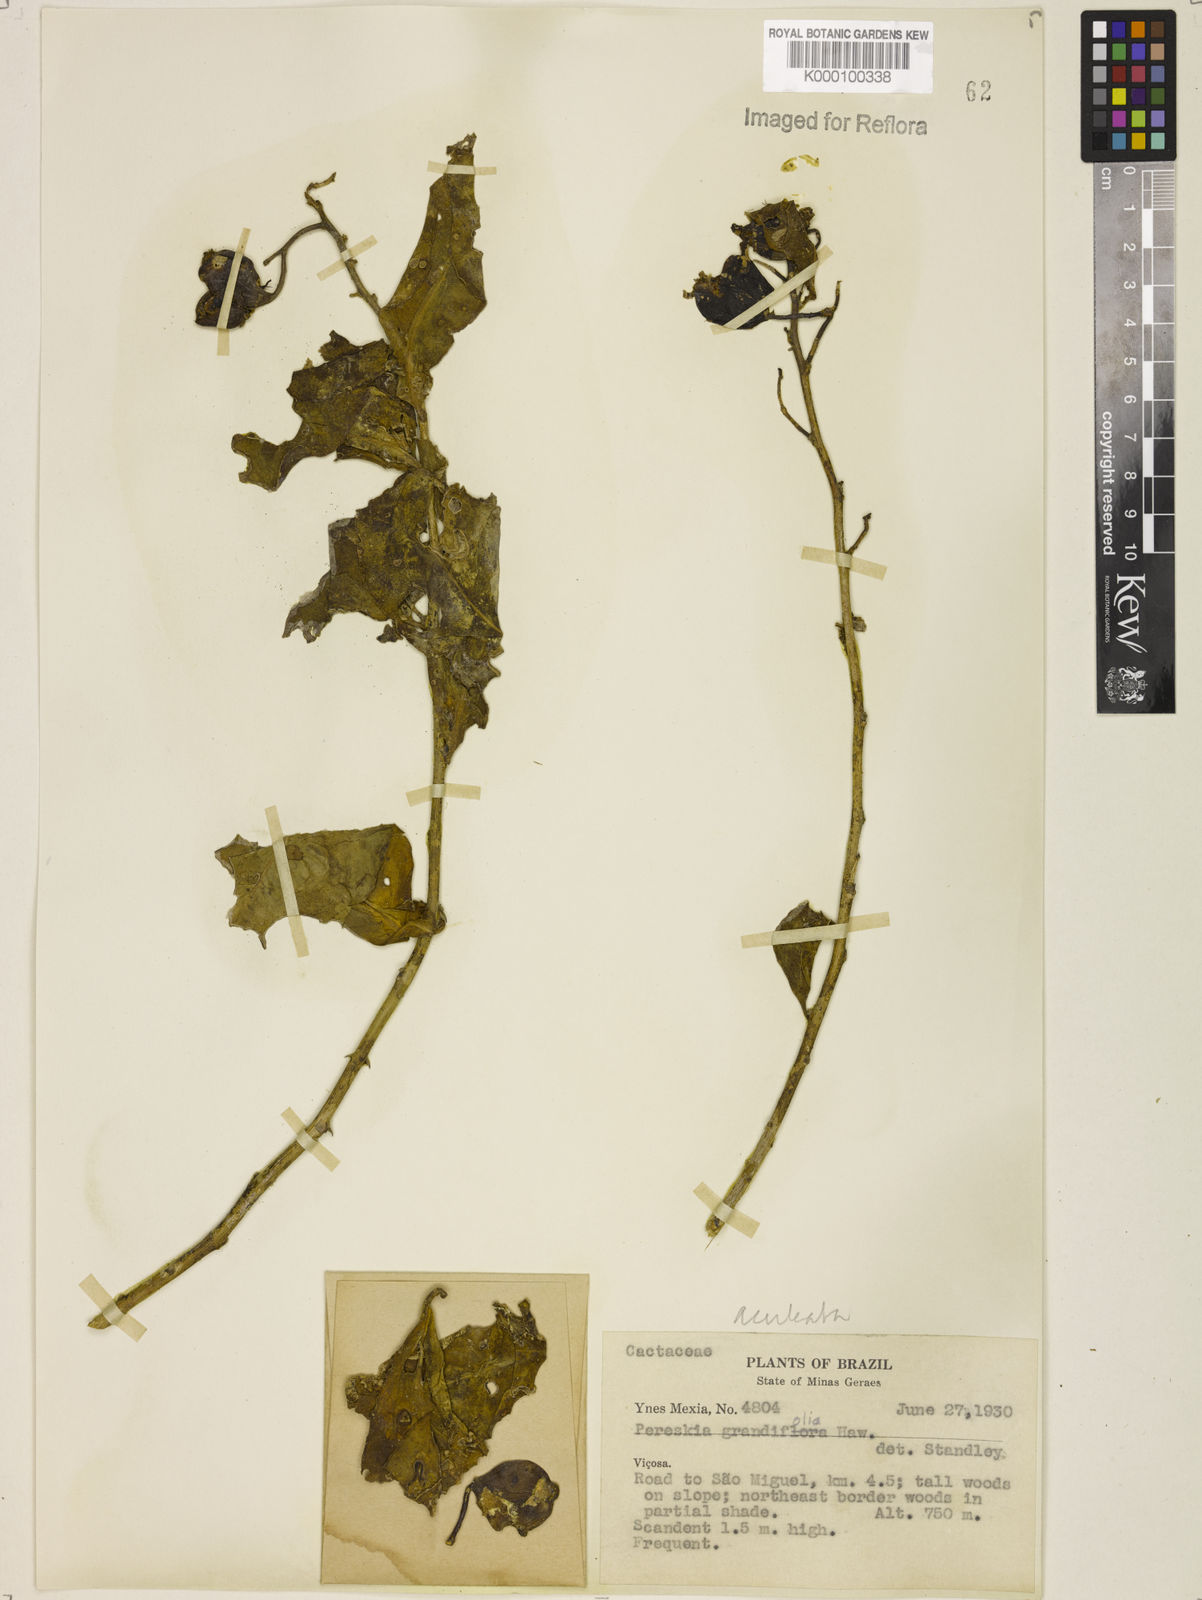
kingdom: Plantae
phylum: Tracheophyta
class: Magnoliopsida
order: Caryophyllales
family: Cactaceae
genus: Pereskia
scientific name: Pereskia aculeata
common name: Barbados gooseberry
